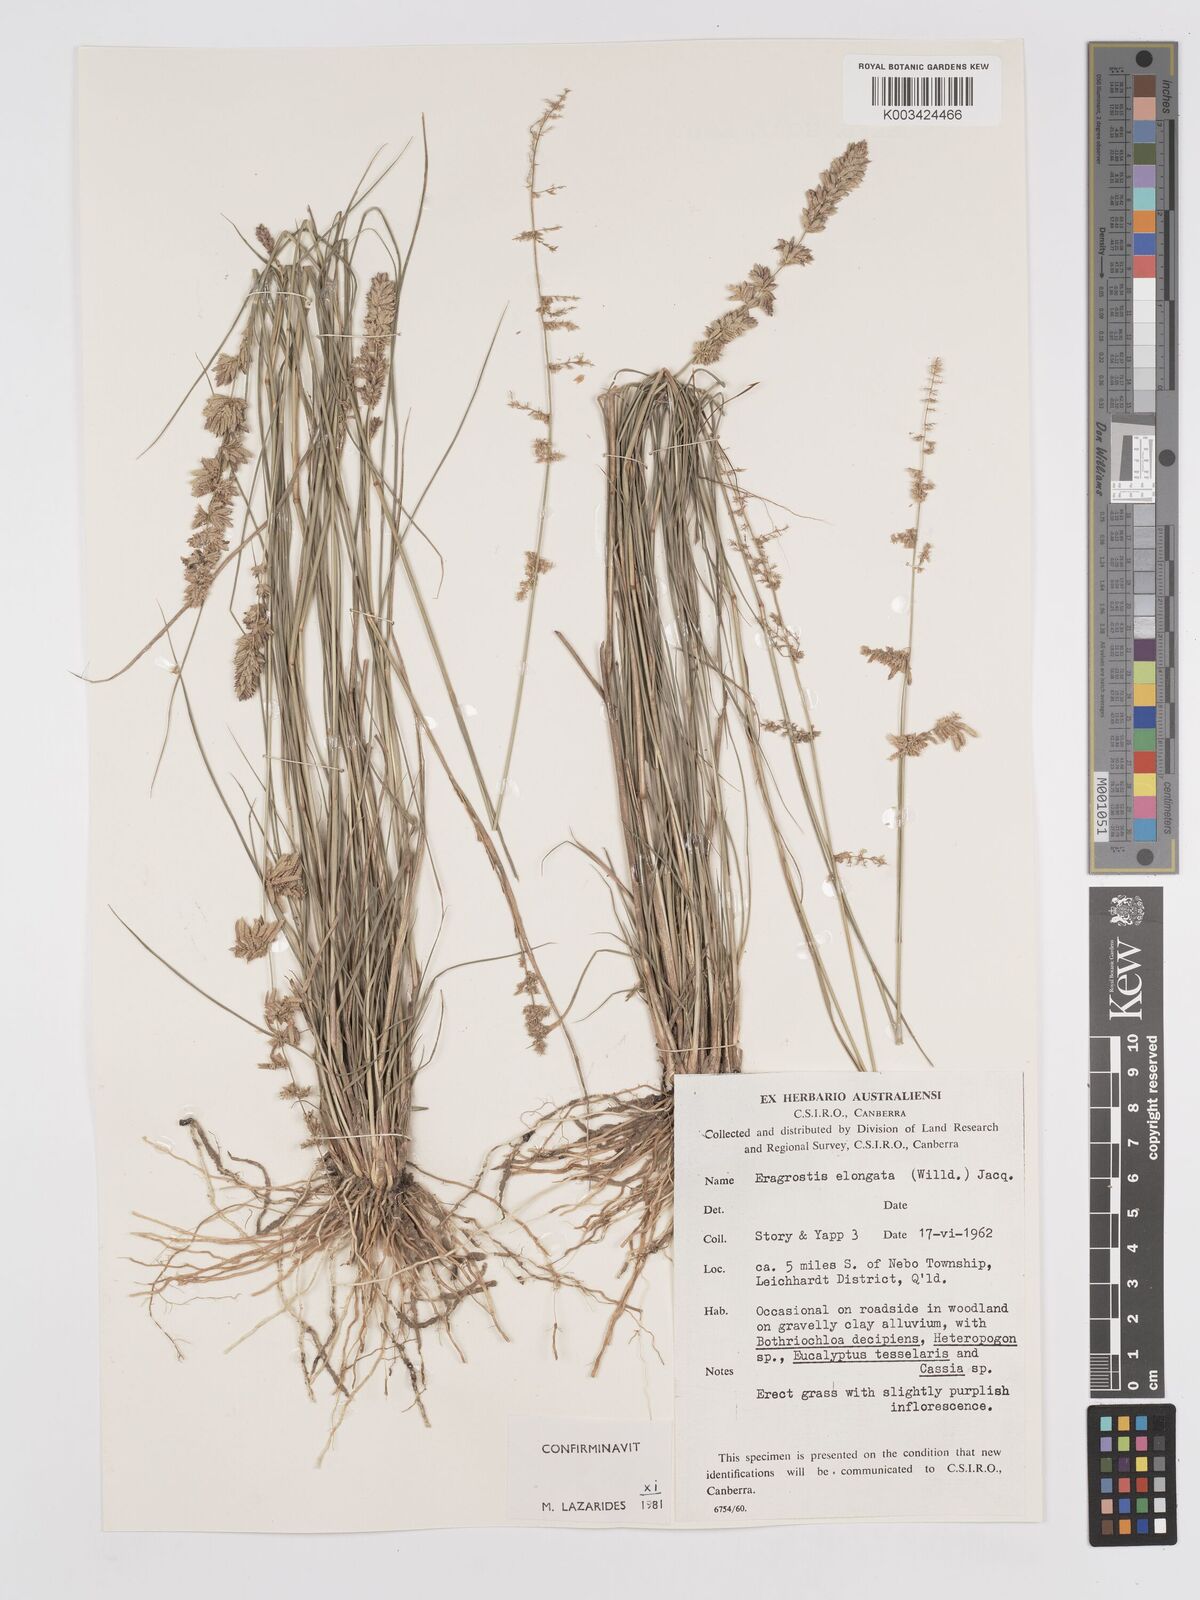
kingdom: Plantae
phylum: Tracheophyta
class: Liliopsida
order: Poales
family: Poaceae
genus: Eragrostis
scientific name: Eragrostis elongata
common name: Long lovegrass
